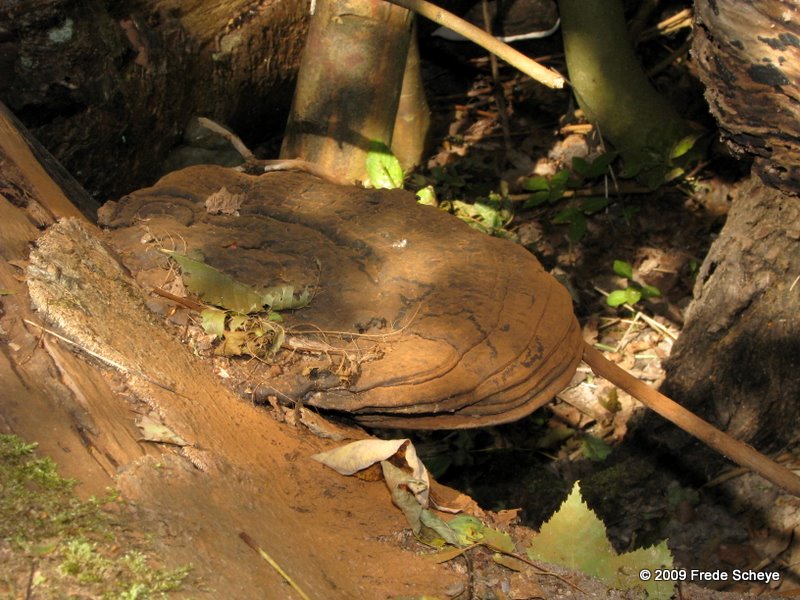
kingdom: Fungi
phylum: Basidiomycota
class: Agaricomycetes
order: Polyporales
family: Polyporaceae
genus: Ganoderma
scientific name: Ganoderma applanatum
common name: flad lakporesvamp
